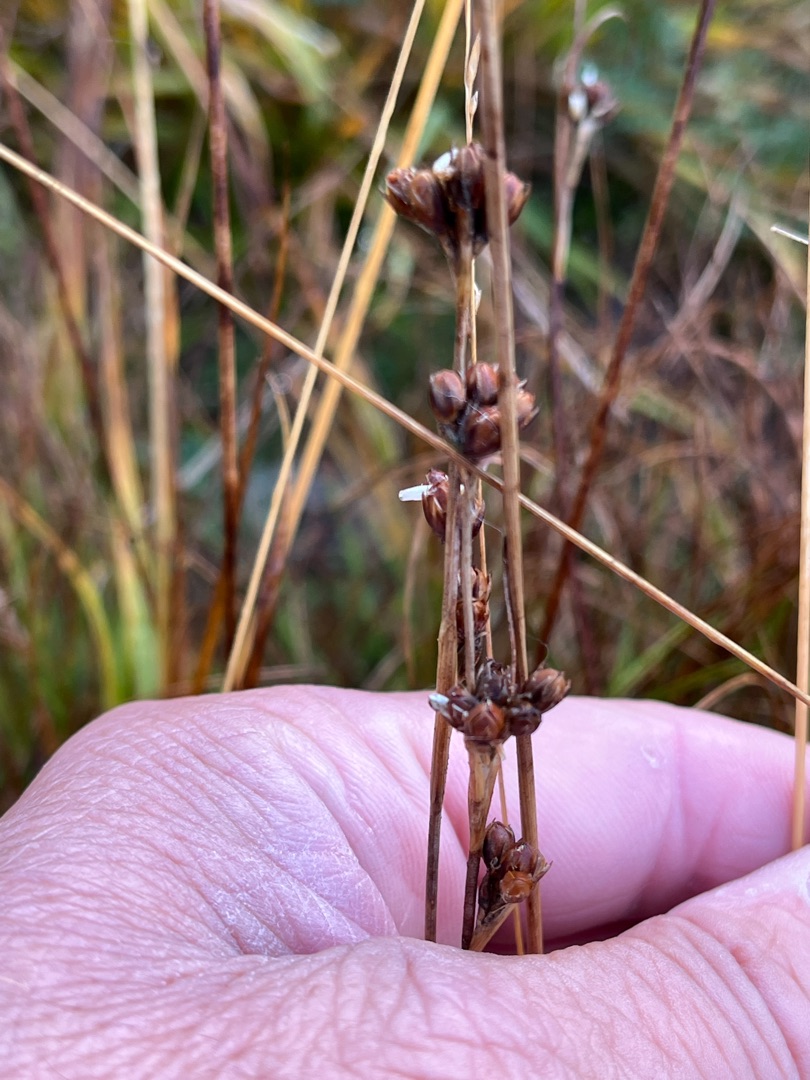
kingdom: Plantae
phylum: Tracheophyta
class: Liliopsida
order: Poales
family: Juncaceae
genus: Juncus
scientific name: Juncus squarrosus
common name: Børste-siv
